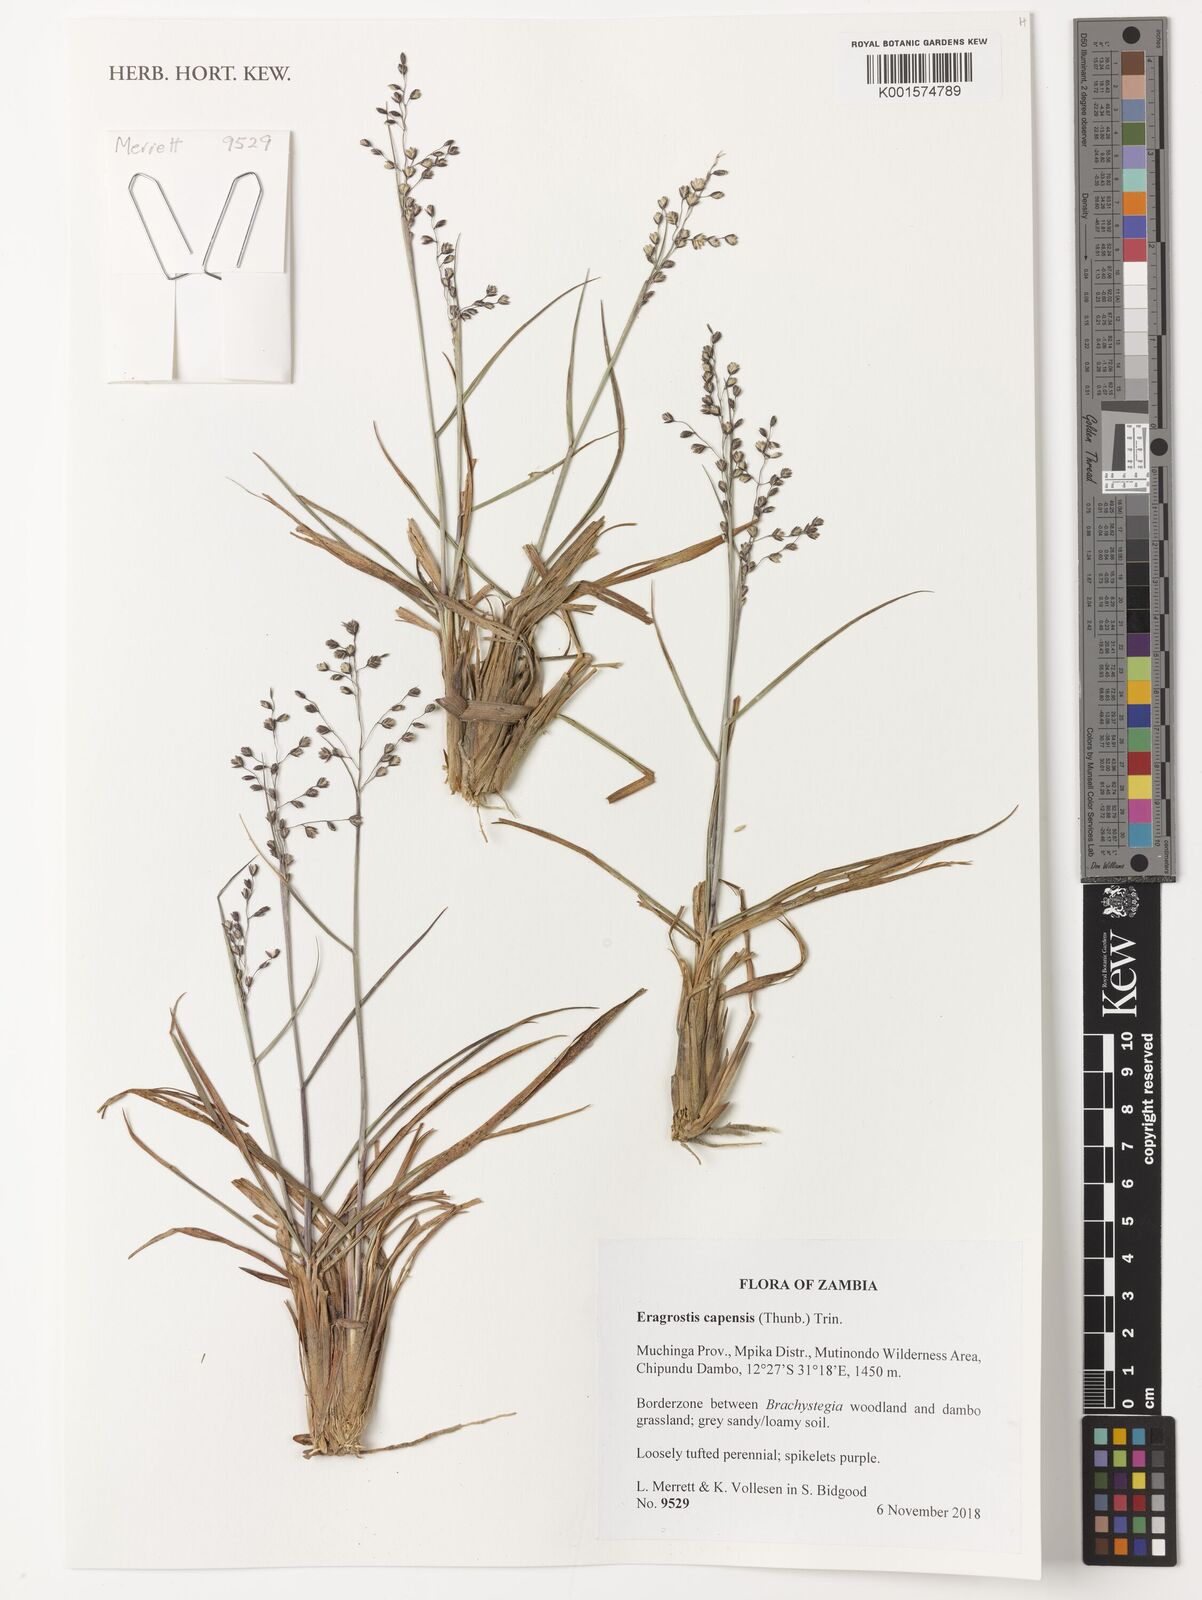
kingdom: Plantae
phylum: Tracheophyta
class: Liliopsida
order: Poales
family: Poaceae
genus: Eragrostis
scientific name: Eragrostis capensis
